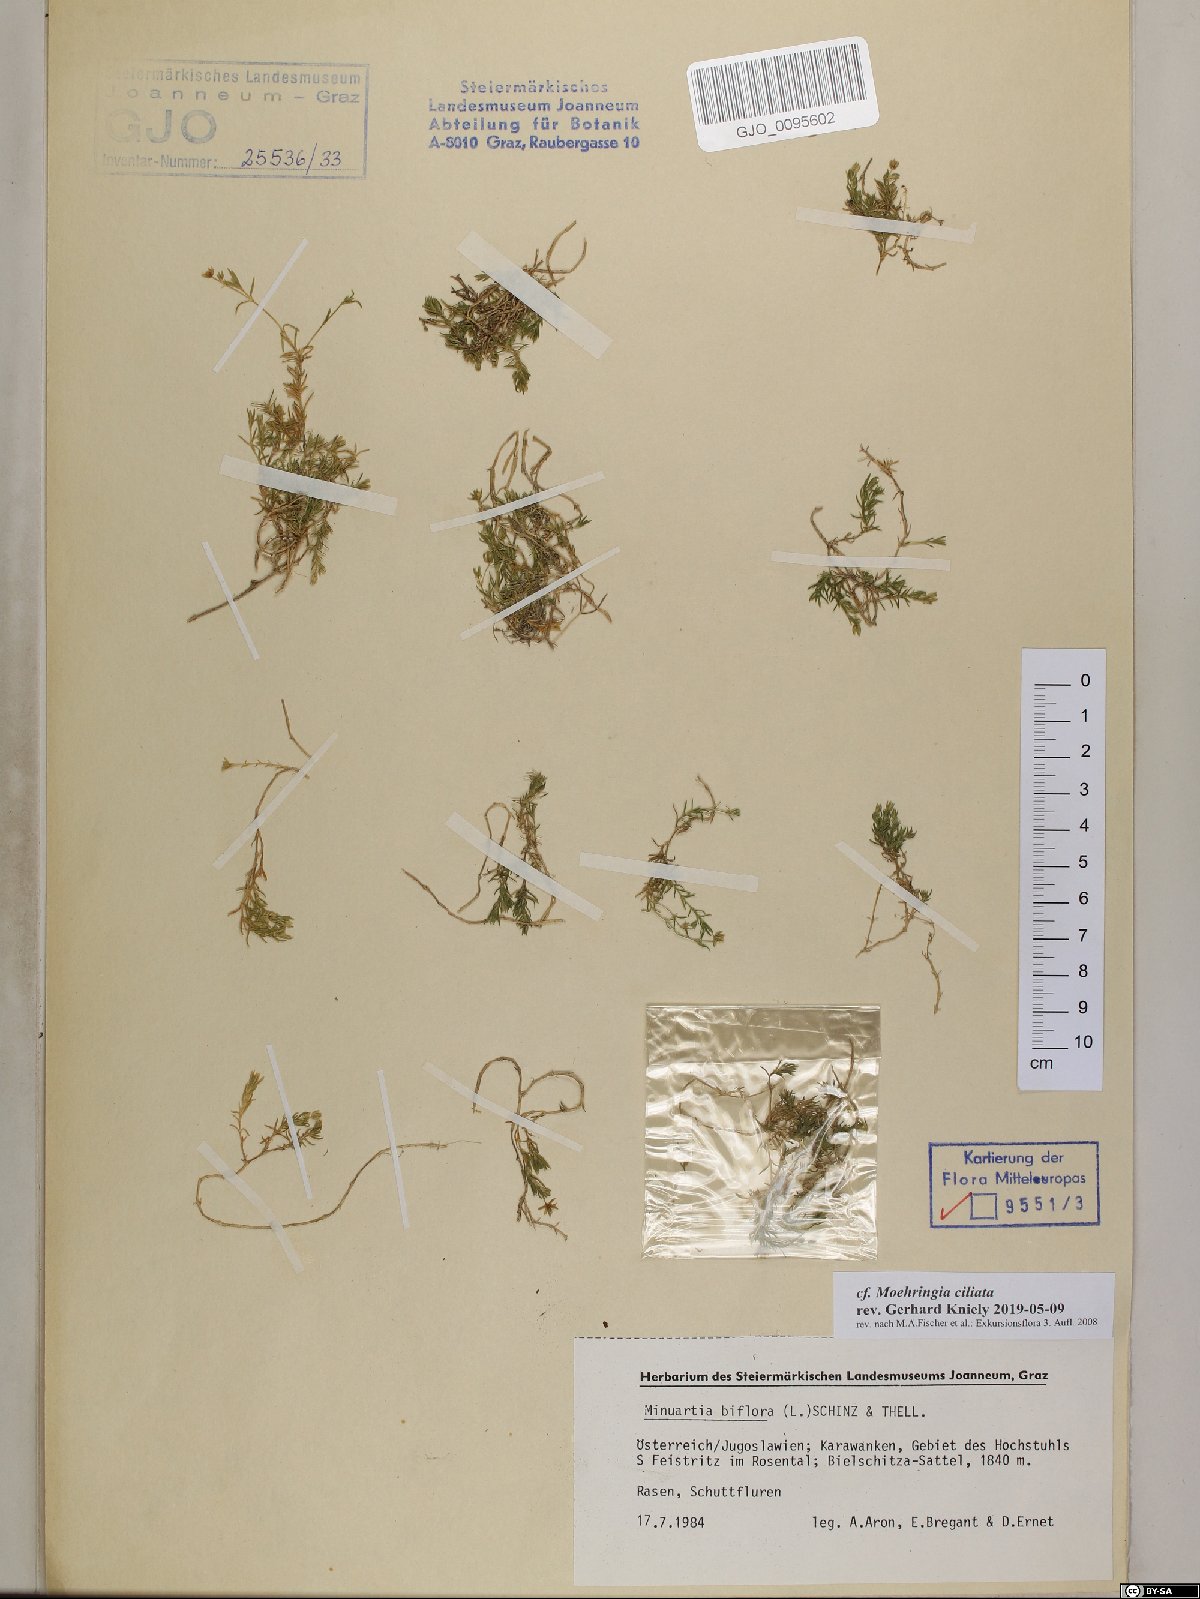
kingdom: Plantae
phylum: Tracheophyta
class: Magnoliopsida
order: Caryophyllales
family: Caryophyllaceae
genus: Moehringia
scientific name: Moehringia ciliata
